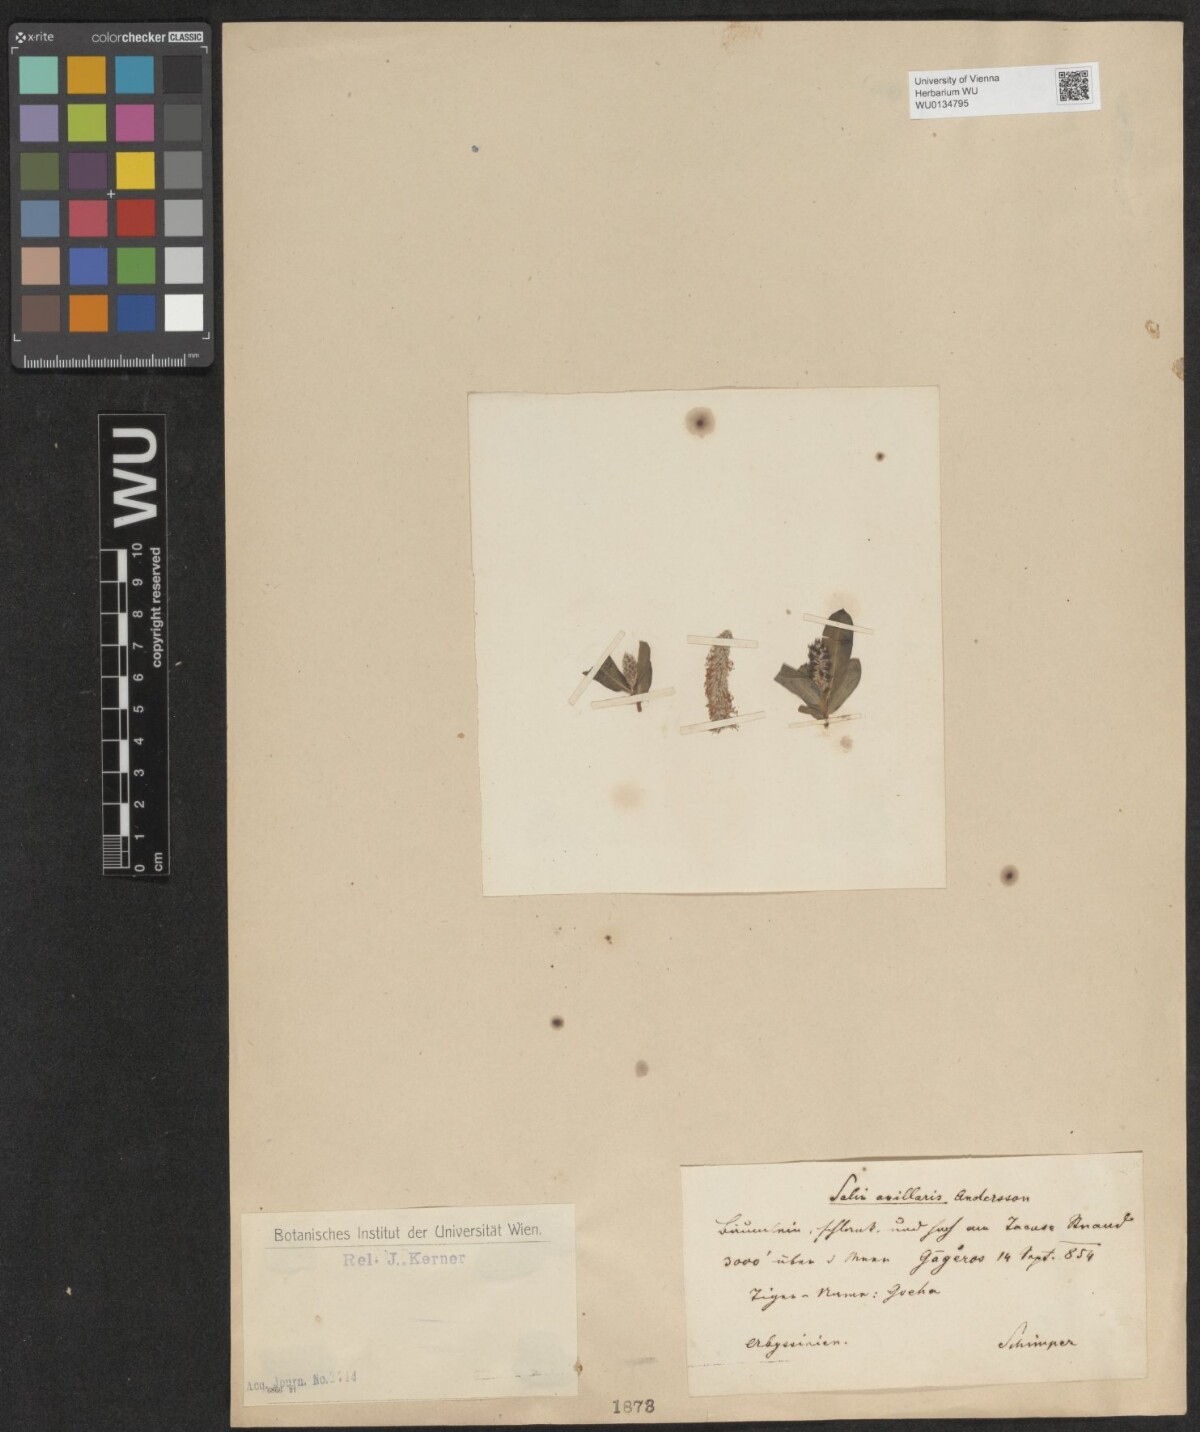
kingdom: Plantae
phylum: Tracheophyta
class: Magnoliopsida
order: Malpighiales
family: Salicaceae
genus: Salix
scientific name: Salix mucronata
